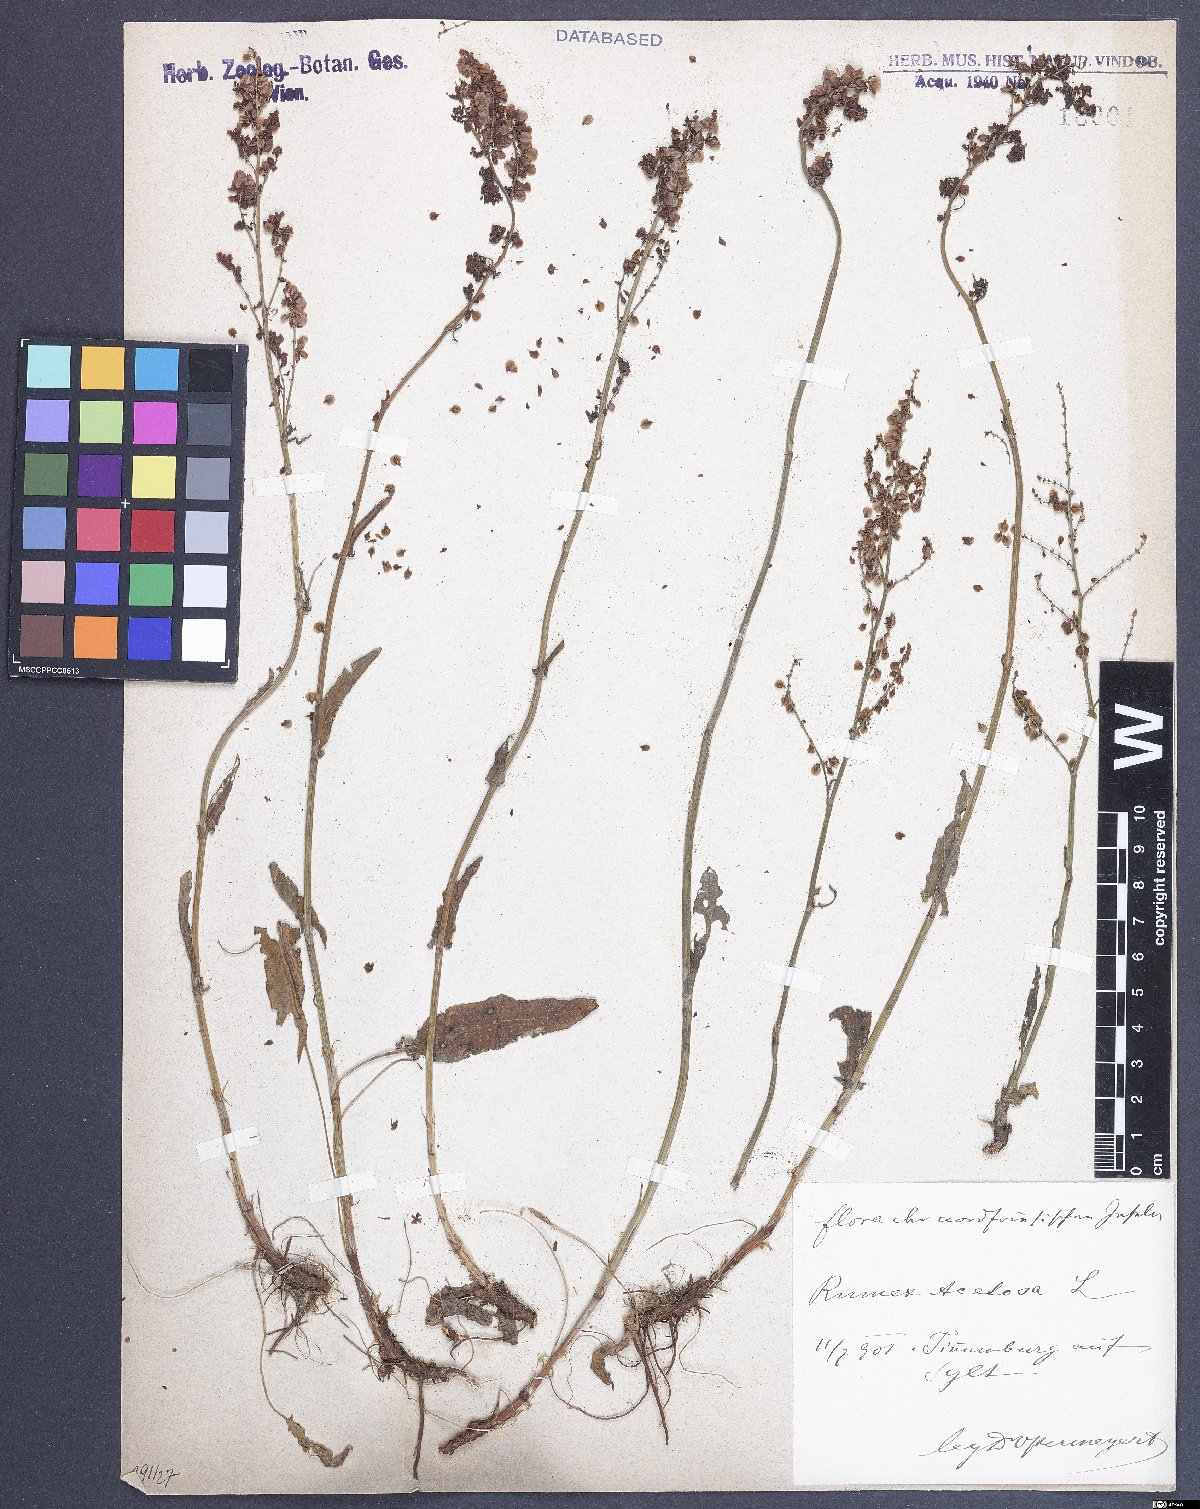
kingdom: Plantae
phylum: Tracheophyta
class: Magnoliopsida
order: Caryophyllales
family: Polygonaceae
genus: Rumex
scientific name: Rumex acetosa
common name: Garden sorrel
